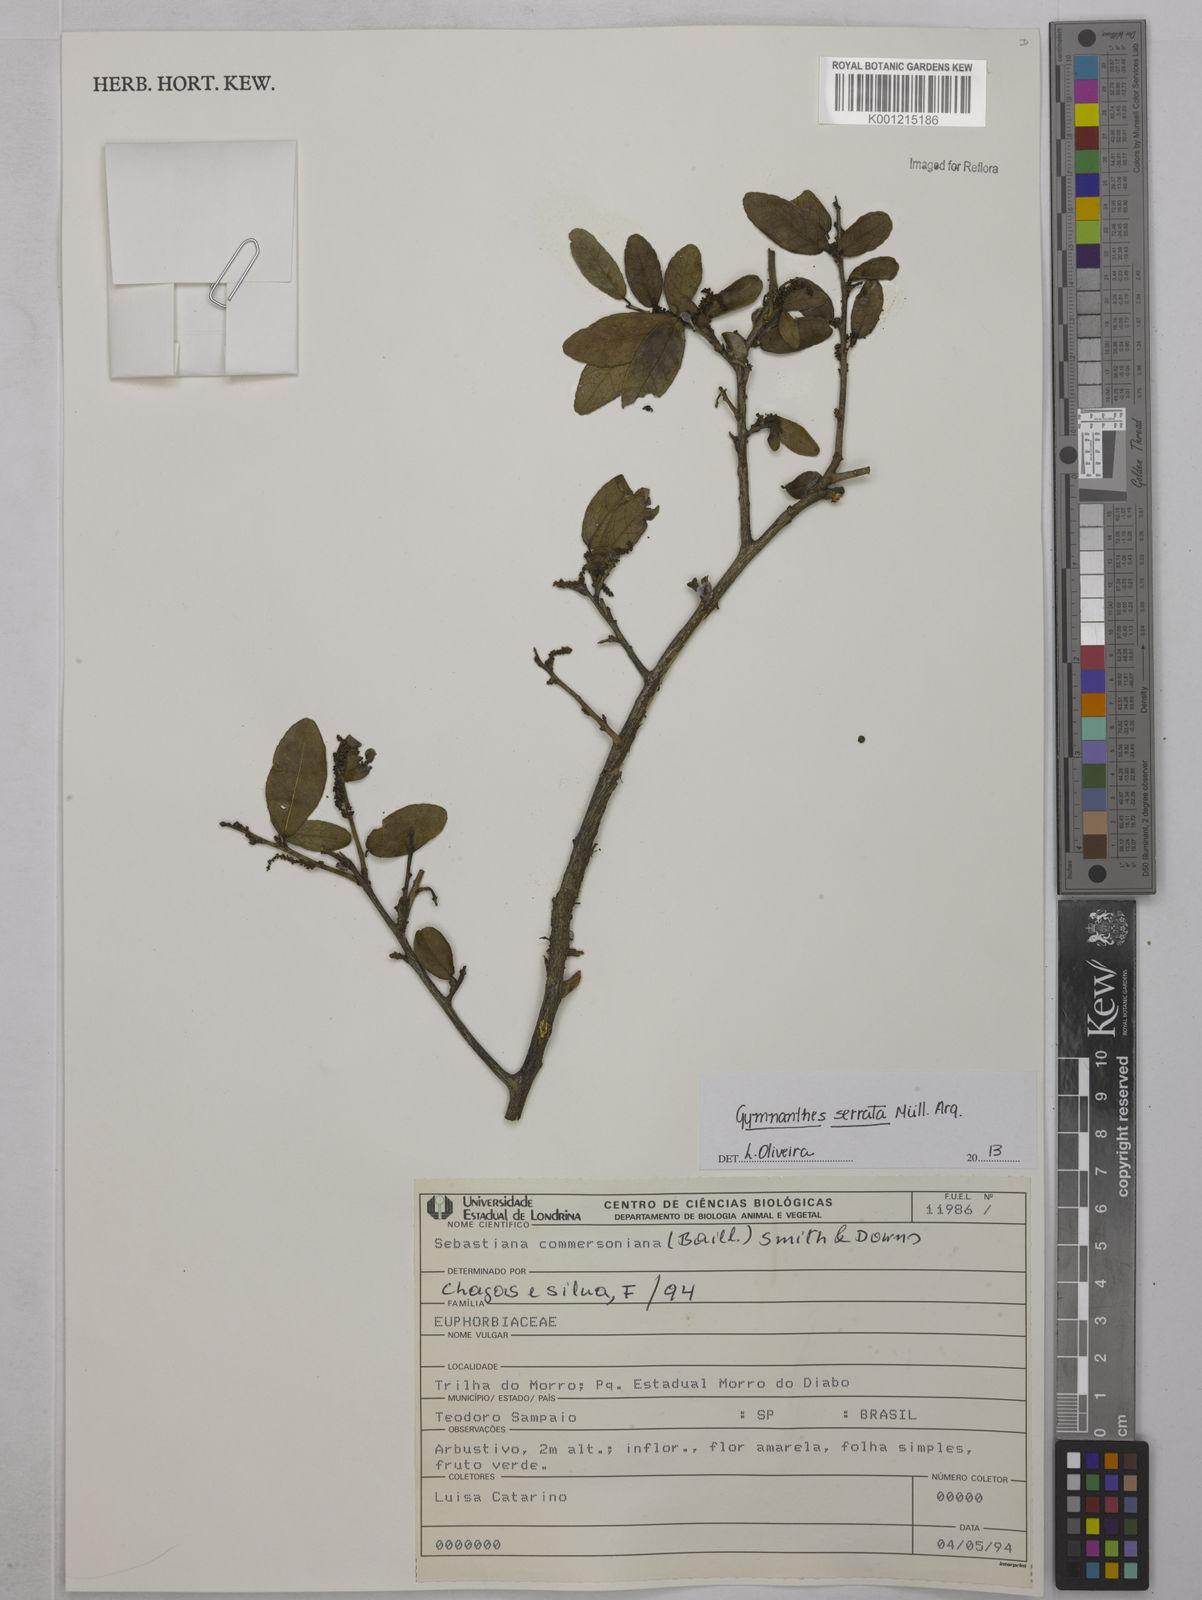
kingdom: Plantae
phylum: Tracheophyta
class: Magnoliopsida
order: Malpighiales
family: Euphorbiaceae
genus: Gymnanthes
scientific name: Gymnanthes
